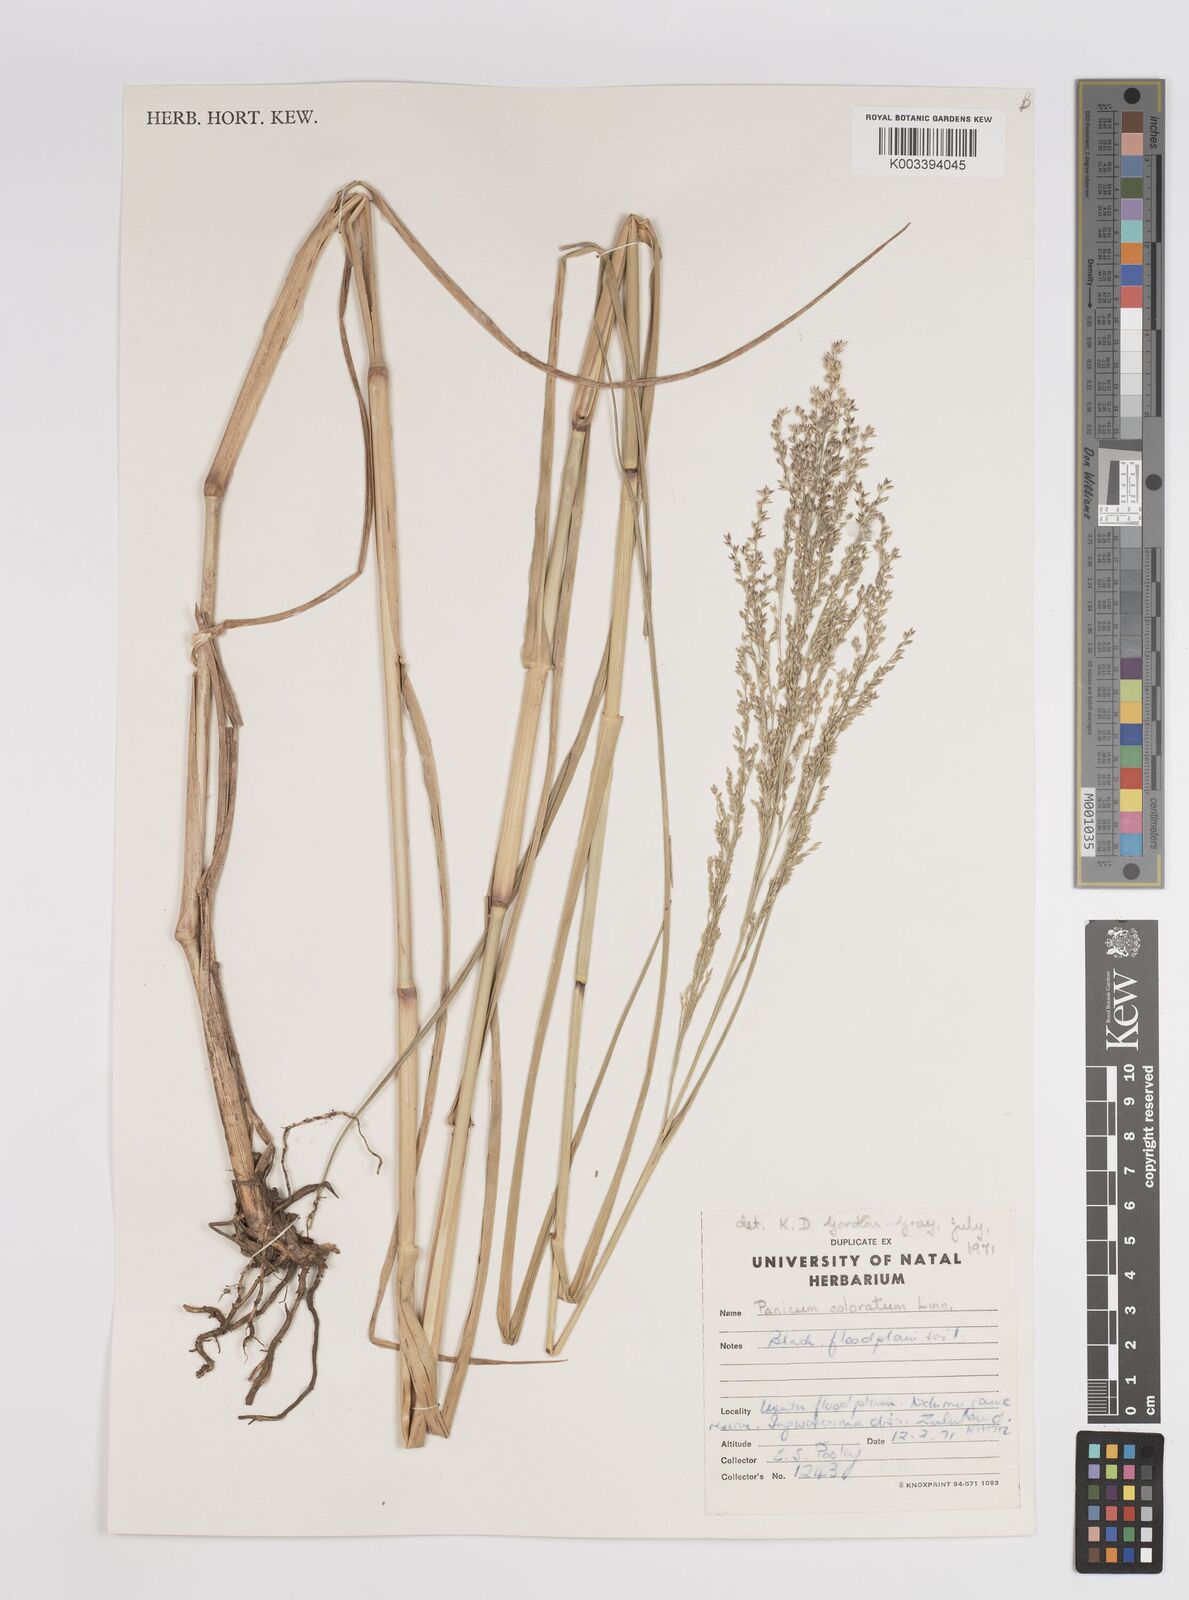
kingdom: Plantae
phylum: Tracheophyta
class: Liliopsida
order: Poales
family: Poaceae
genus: Panicum
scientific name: Panicum coloratum
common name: Kleingrass
